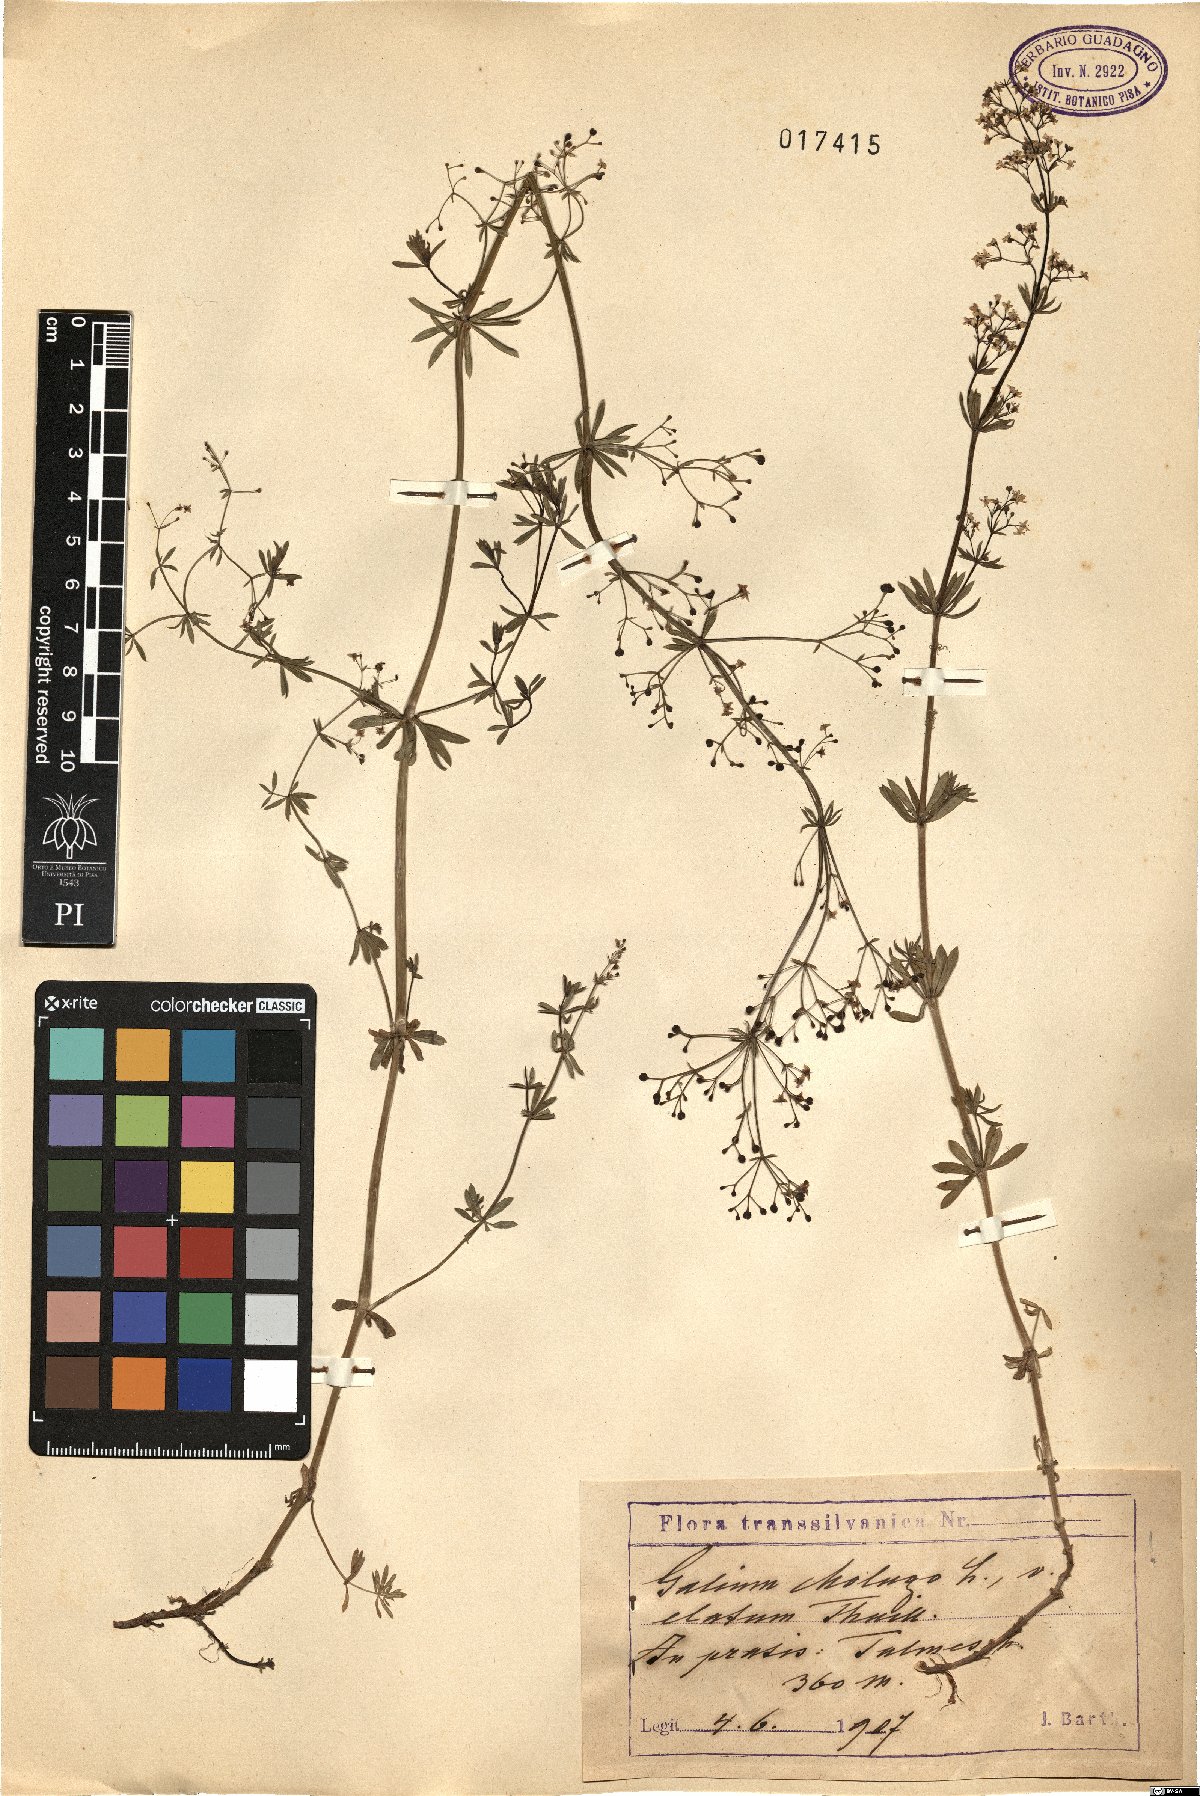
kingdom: Plantae
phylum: Tracheophyta
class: Magnoliopsida
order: Gentianales
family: Rubiaceae
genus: Galium
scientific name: Galium mollugo
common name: Hedge bedstraw
